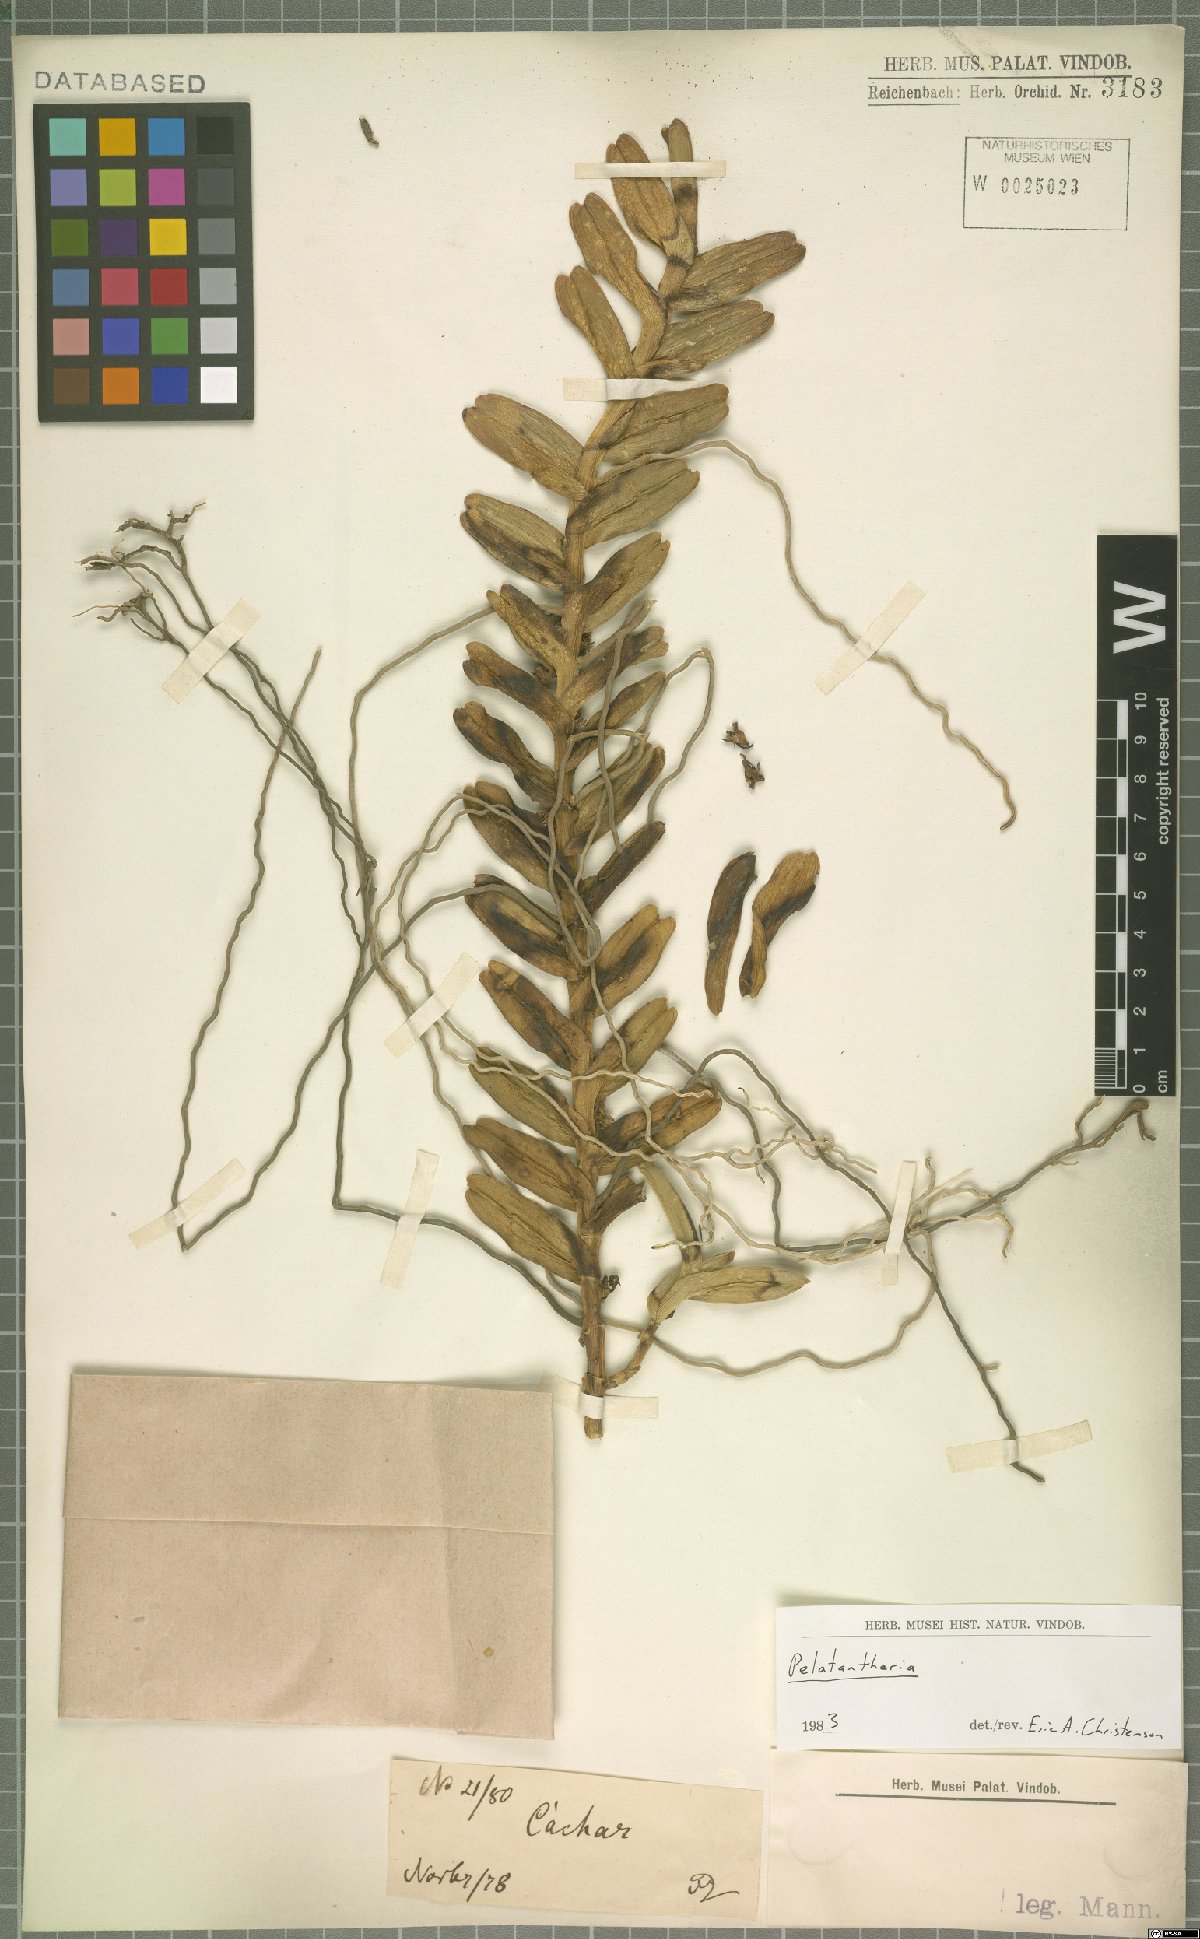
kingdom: Plantae
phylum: Tracheophyta
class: Liliopsida
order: Asparagales
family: Orchidaceae
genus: Pelatantheria
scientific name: Pelatantheria
